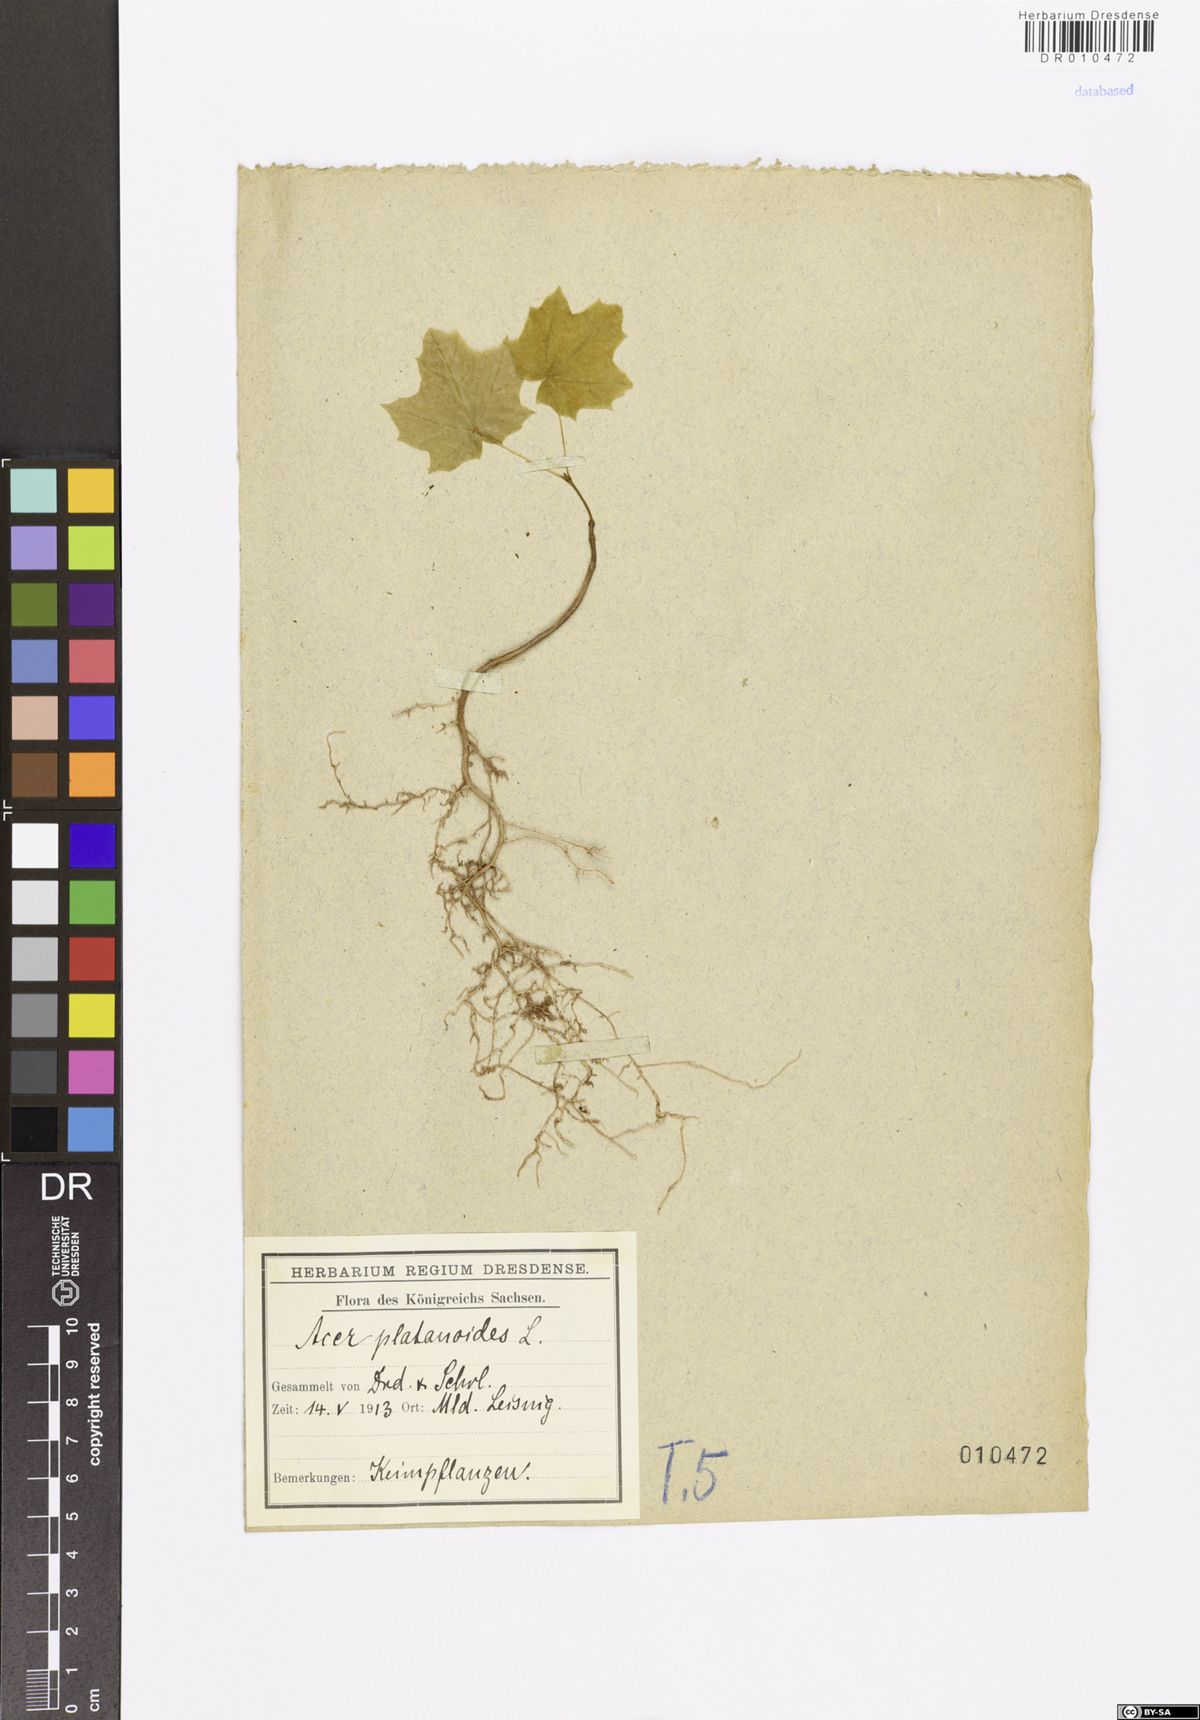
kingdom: Plantae
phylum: Tracheophyta
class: Magnoliopsida
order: Sapindales
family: Sapindaceae
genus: Acer
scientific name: Acer platanoides
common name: Norway maple
